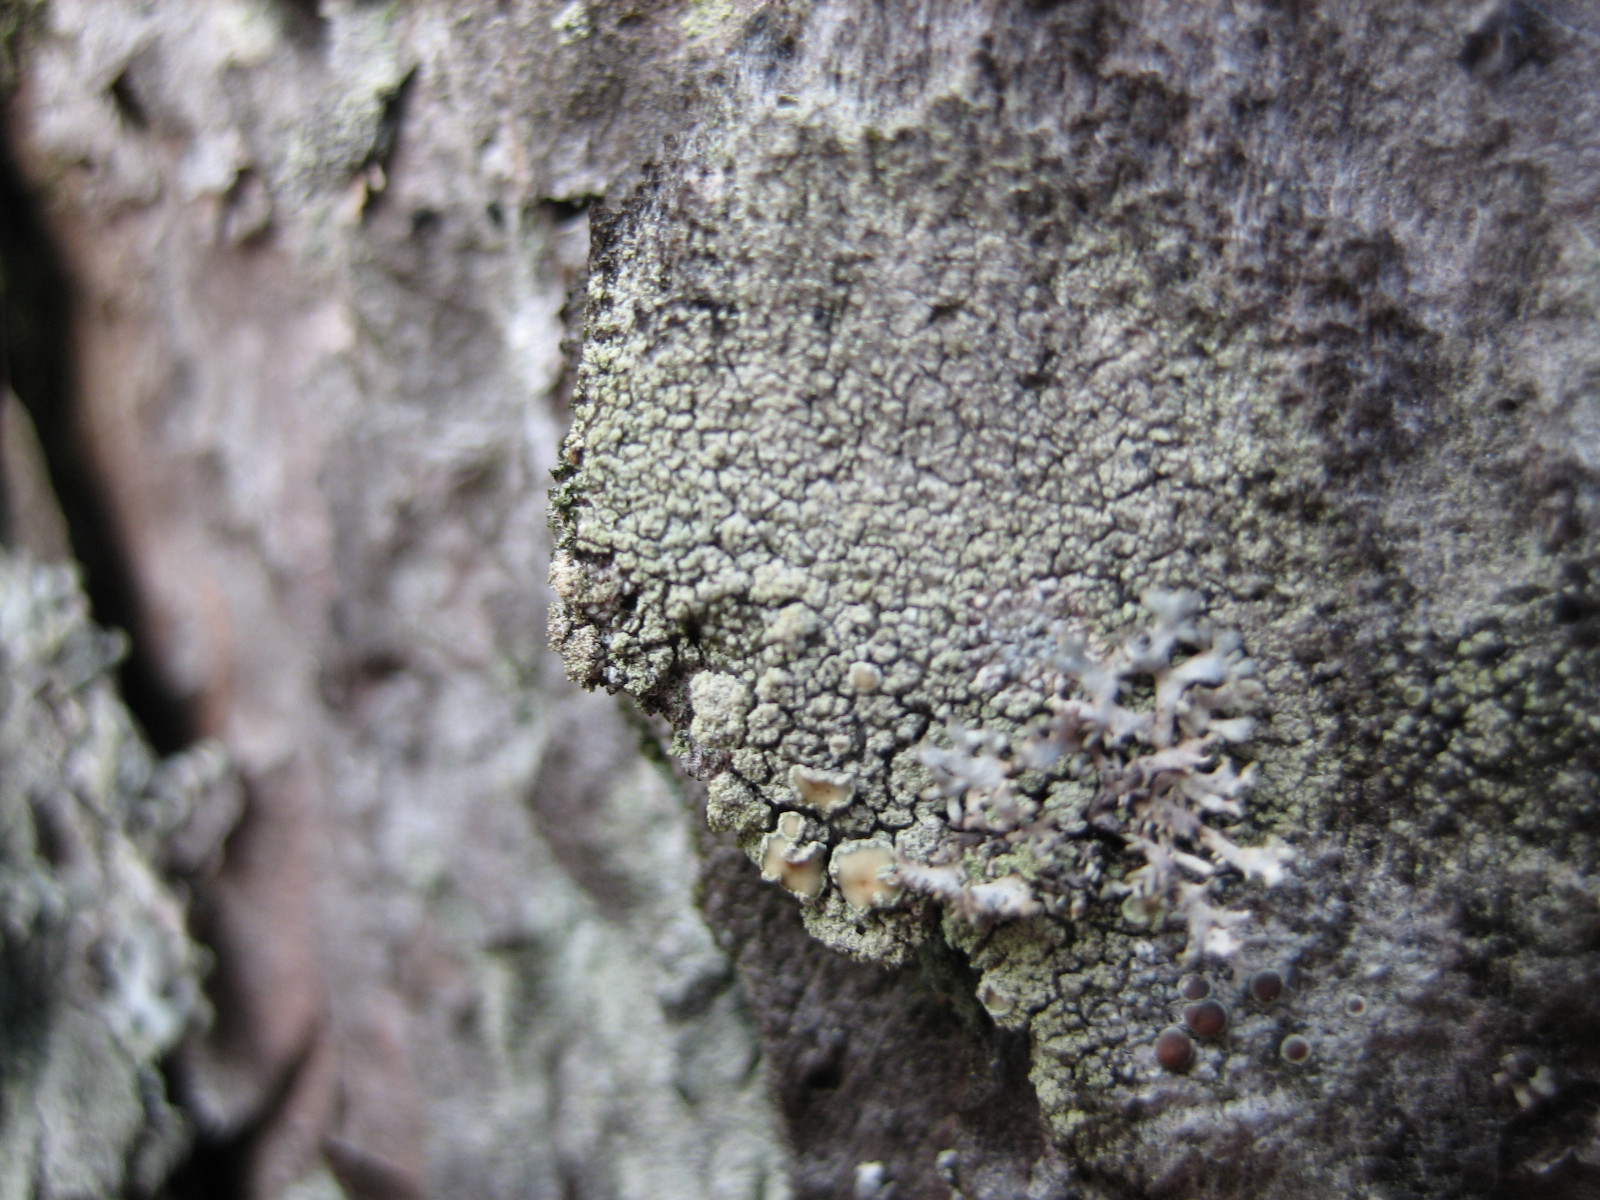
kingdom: Fungi
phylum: Ascomycota
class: Lecanoromycetes
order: Lecanorales
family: Lecanoraceae
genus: Straminella
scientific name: Straminella conizaeoides
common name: by-kantskivelav
